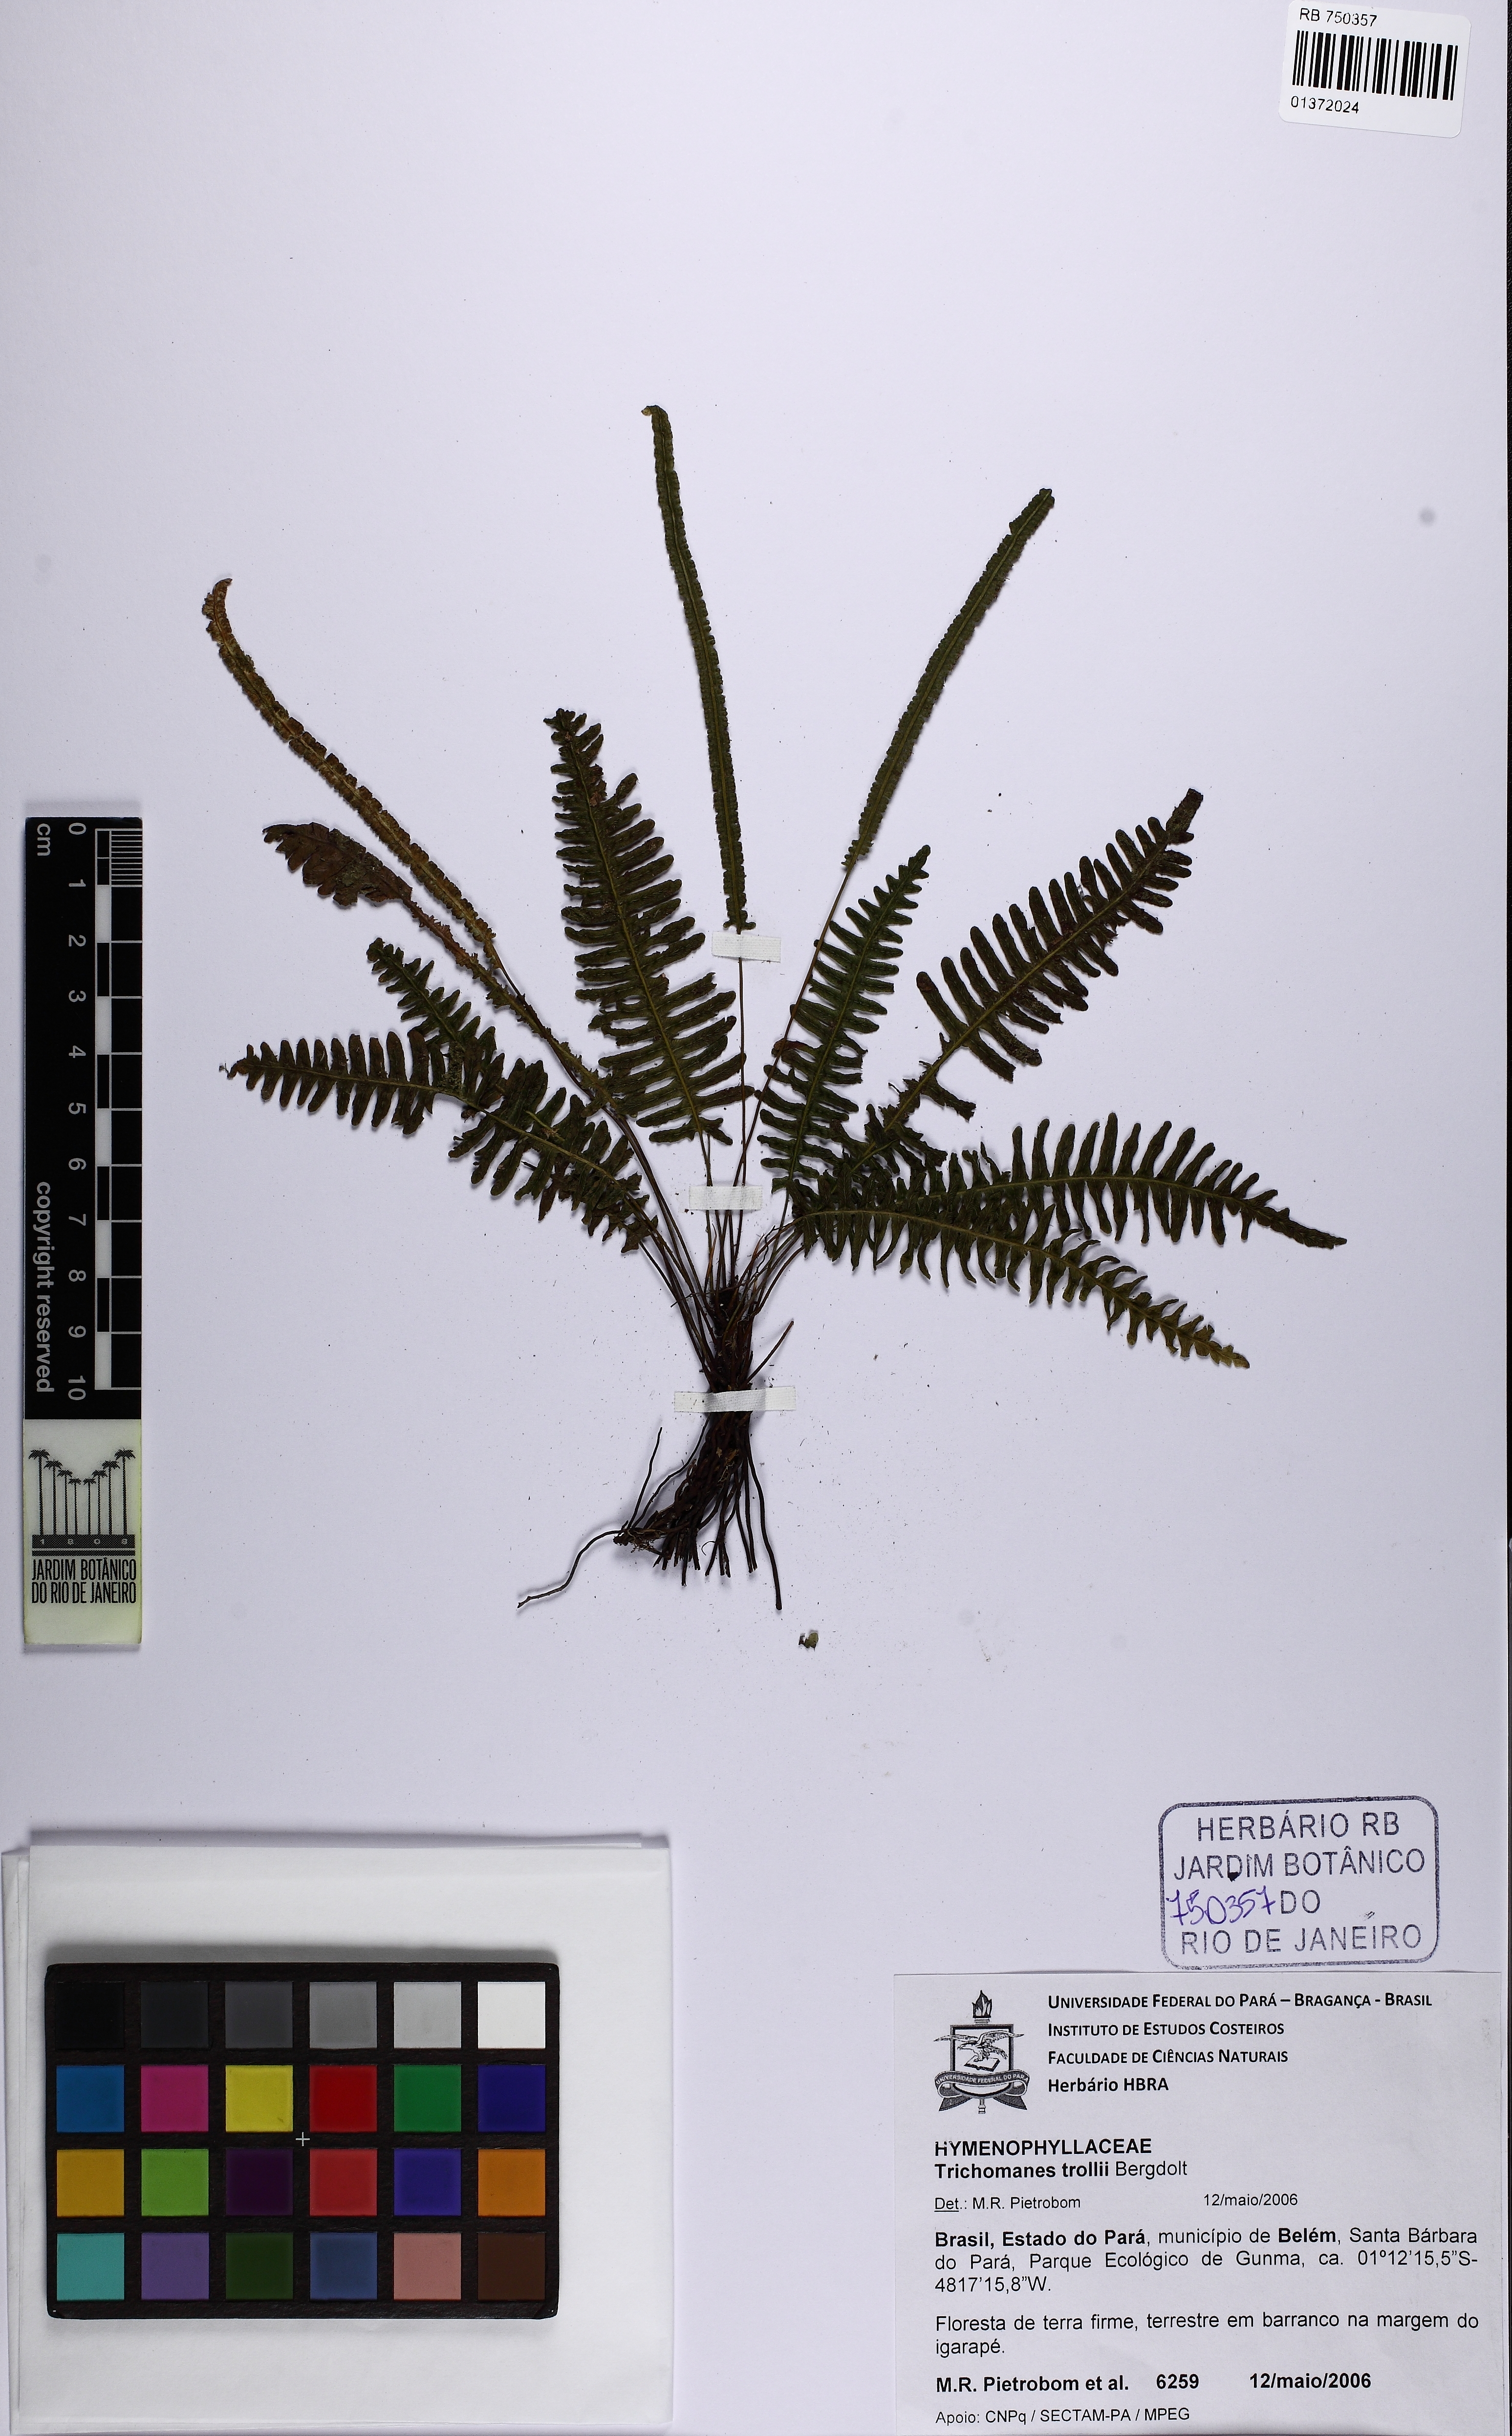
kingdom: Plantae
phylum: Tracheophyta
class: Polypodiopsida
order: Hymenophyllales
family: Hymenophyllaceae
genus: Trichomanes
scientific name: Trichomanes trollii
